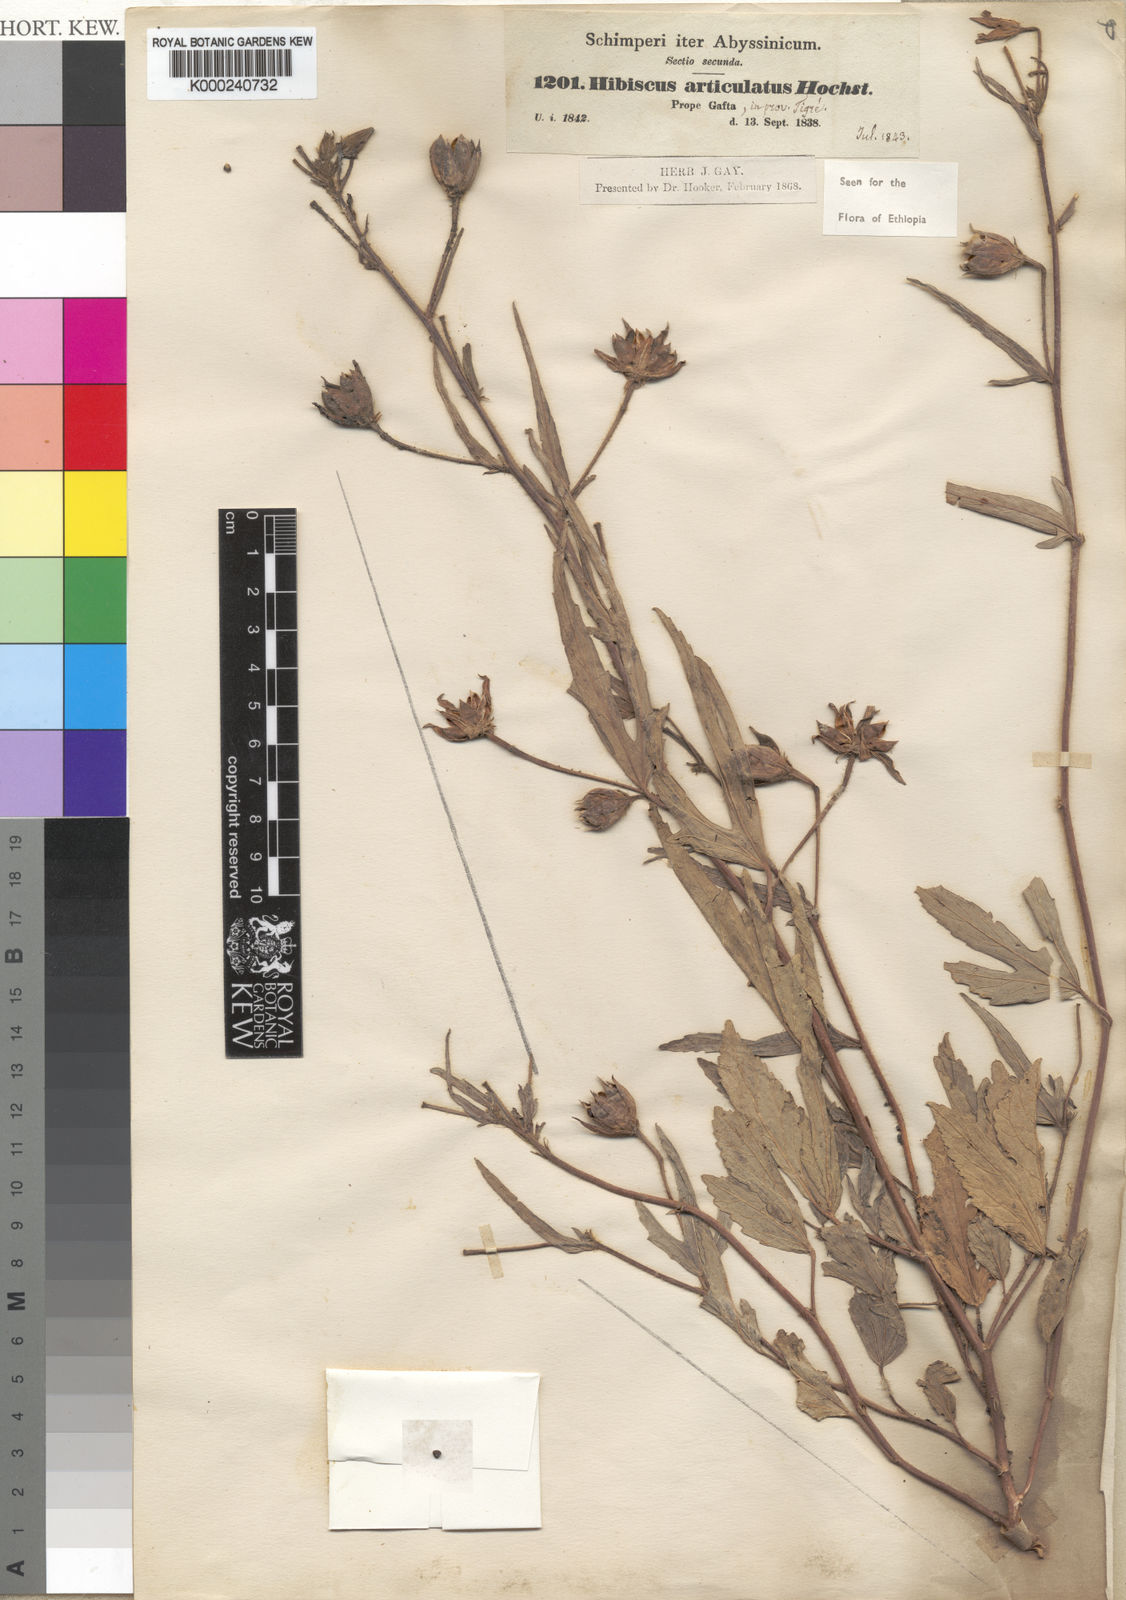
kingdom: Plantae
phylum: Tracheophyta
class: Magnoliopsida
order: Malvales
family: Malvaceae
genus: Hibiscus
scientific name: Hibiscus articulatus
